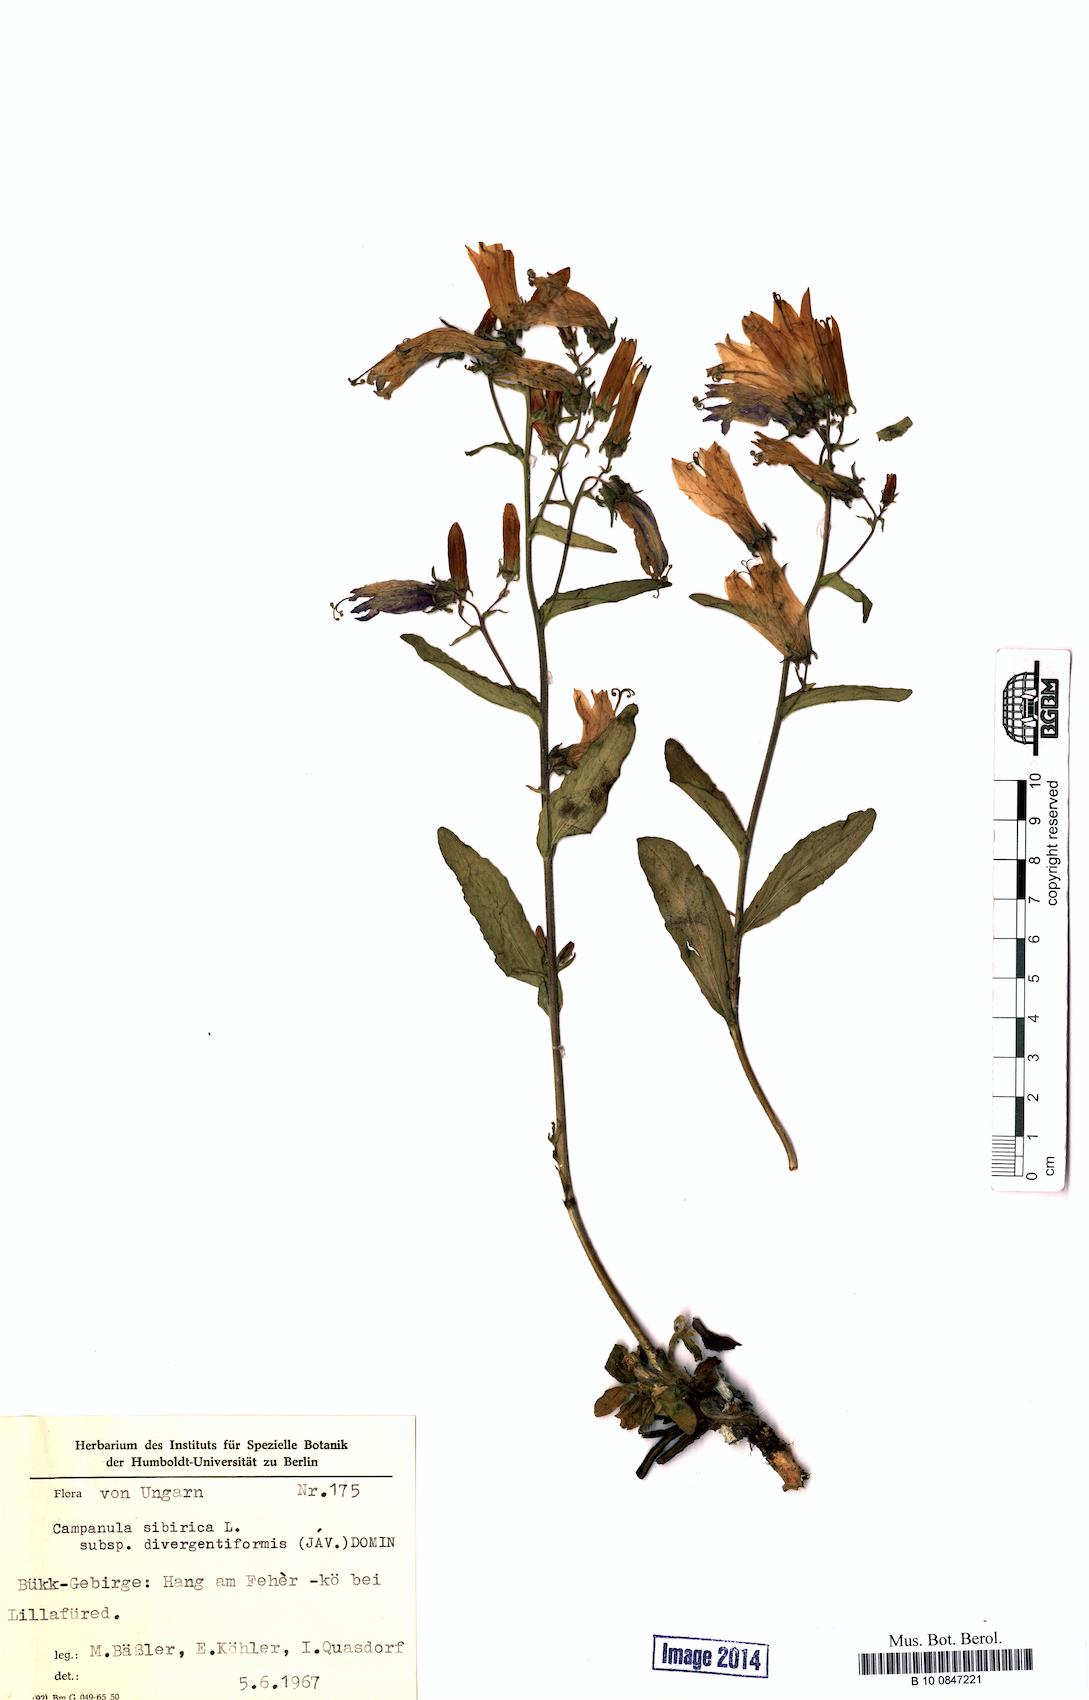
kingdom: Plantae
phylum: Tracheophyta
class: Magnoliopsida
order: Asterales
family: Campanulaceae
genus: Campanula
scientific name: Campanula sibirica
